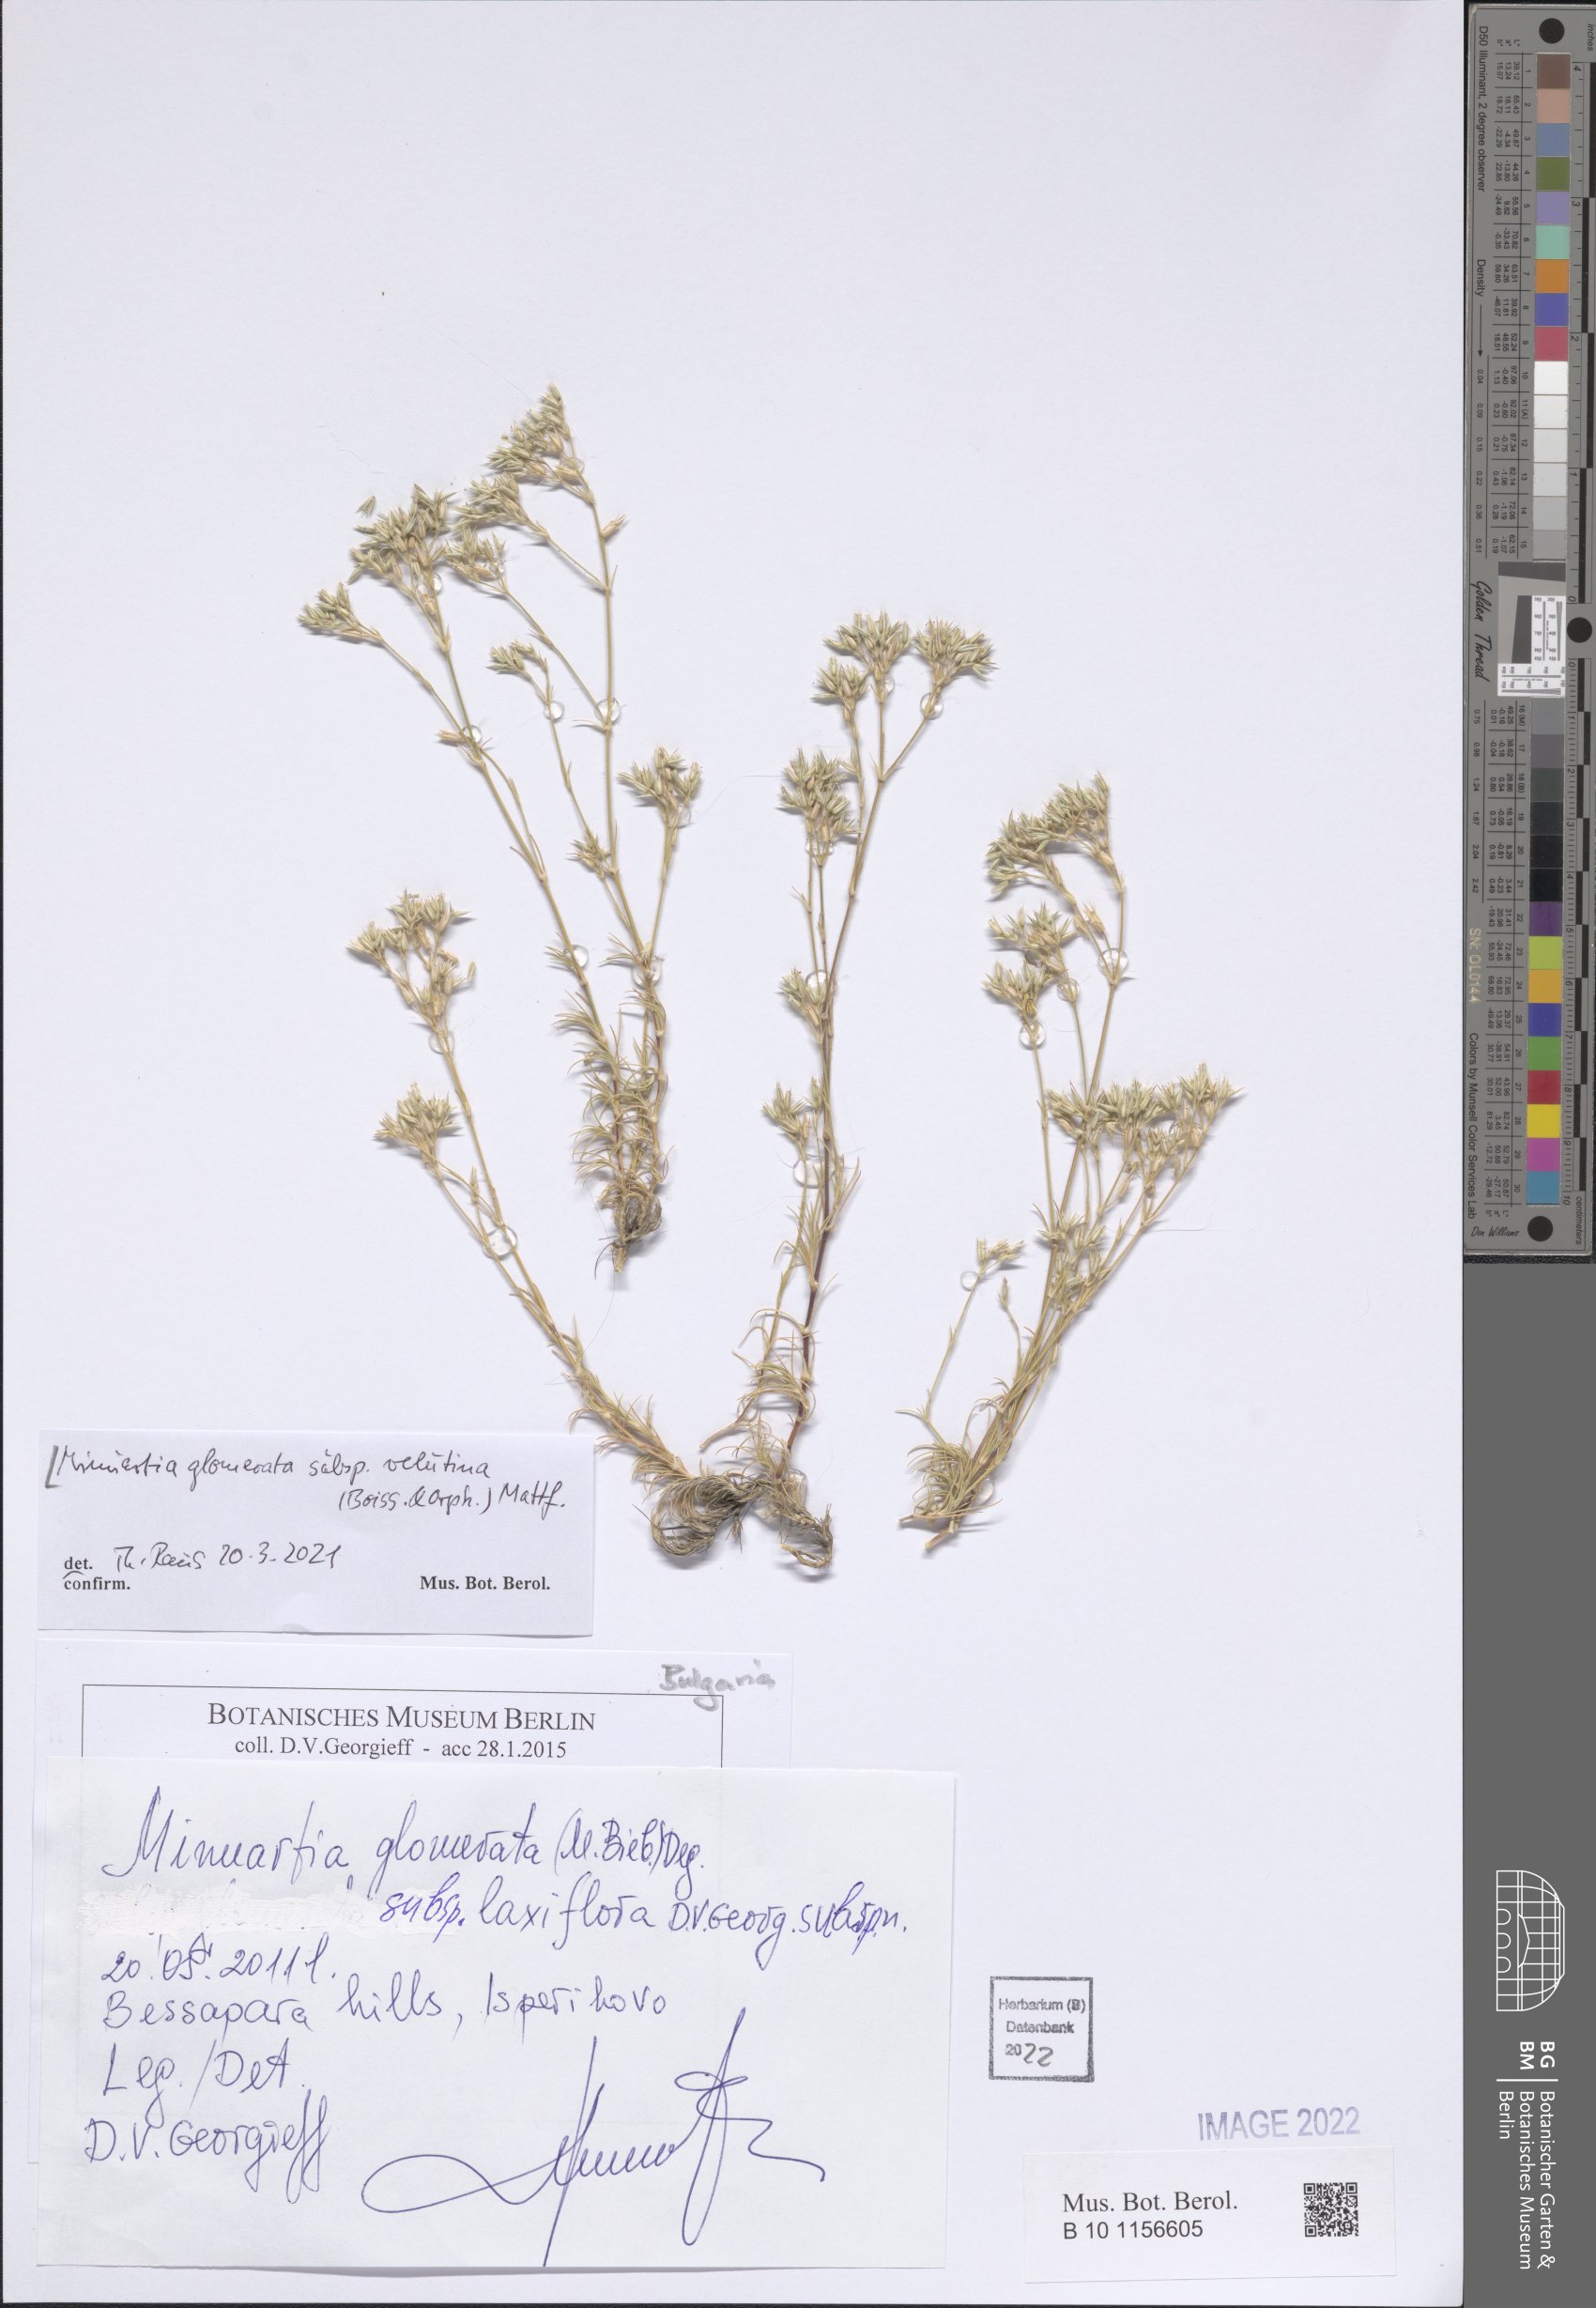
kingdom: Plantae
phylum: Tracheophyta
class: Magnoliopsida
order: Caryophyllales
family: Caryophyllaceae
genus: Minuartia
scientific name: Minuartia glomerata
